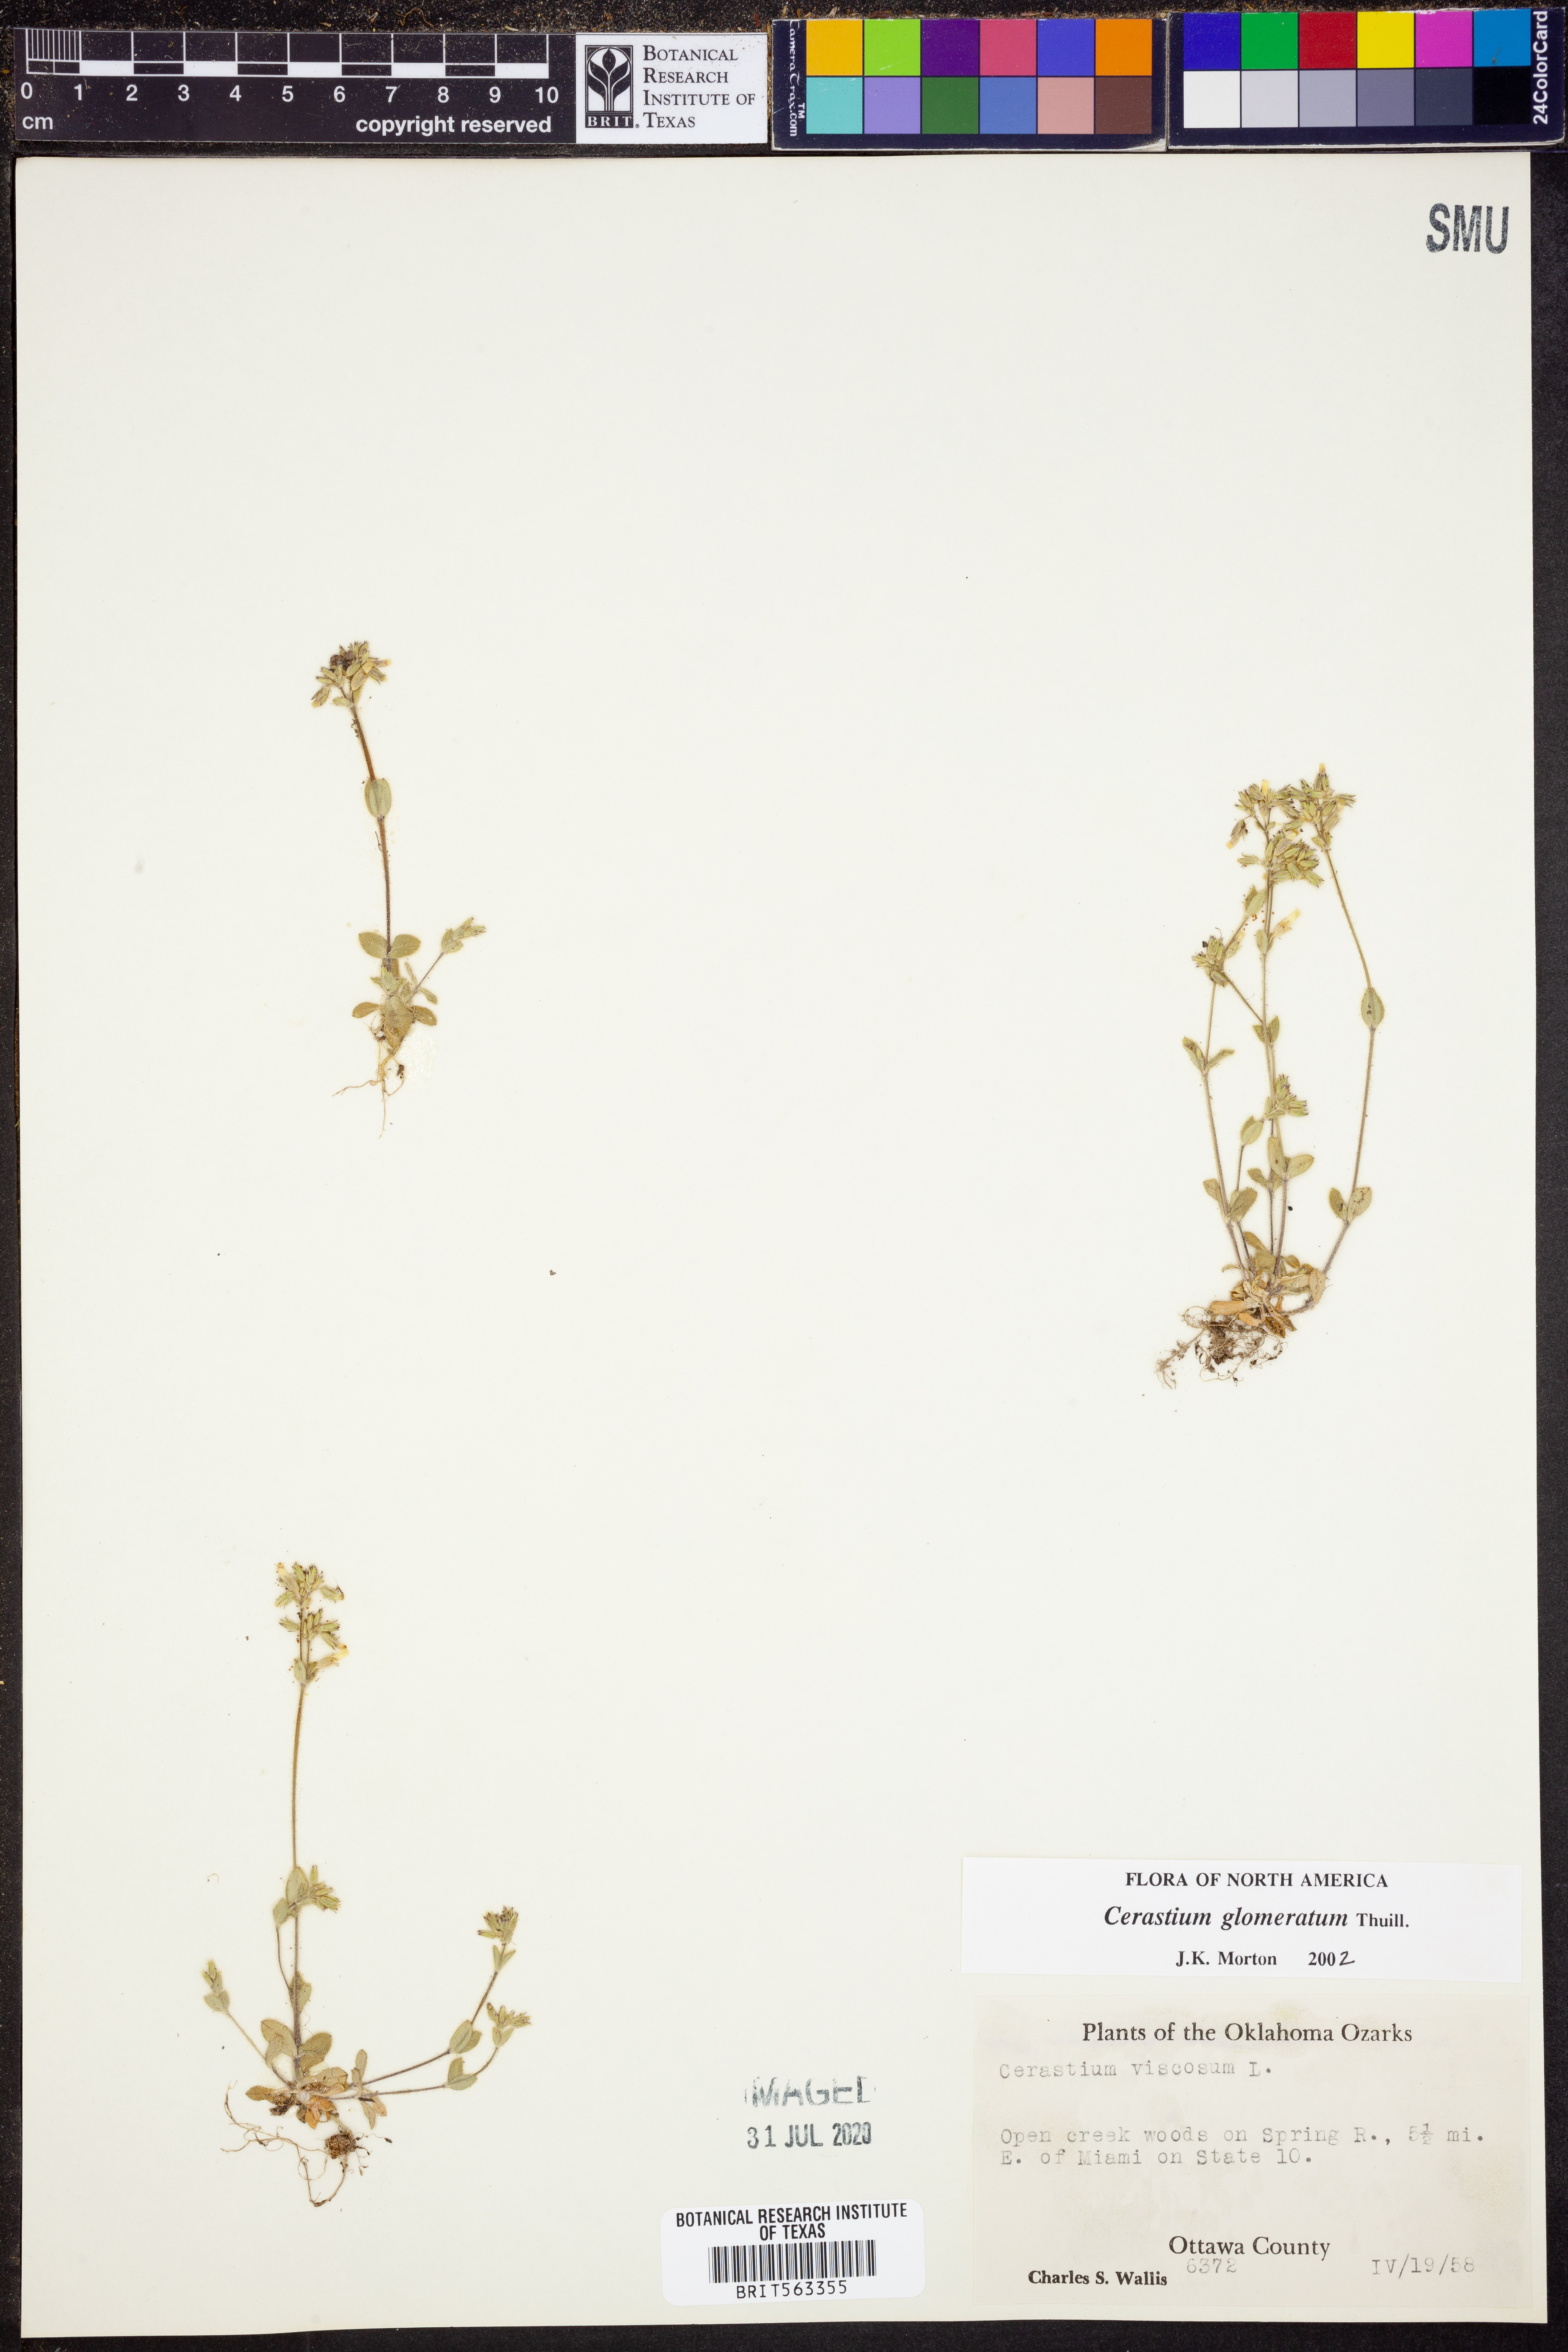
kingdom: Plantae
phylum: Tracheophyta
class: Magnoliopsida
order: Caryophyllales
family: Caryophyllaceae
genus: Cerastium
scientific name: Cerastium glomeratum
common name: Sticky chickweed
